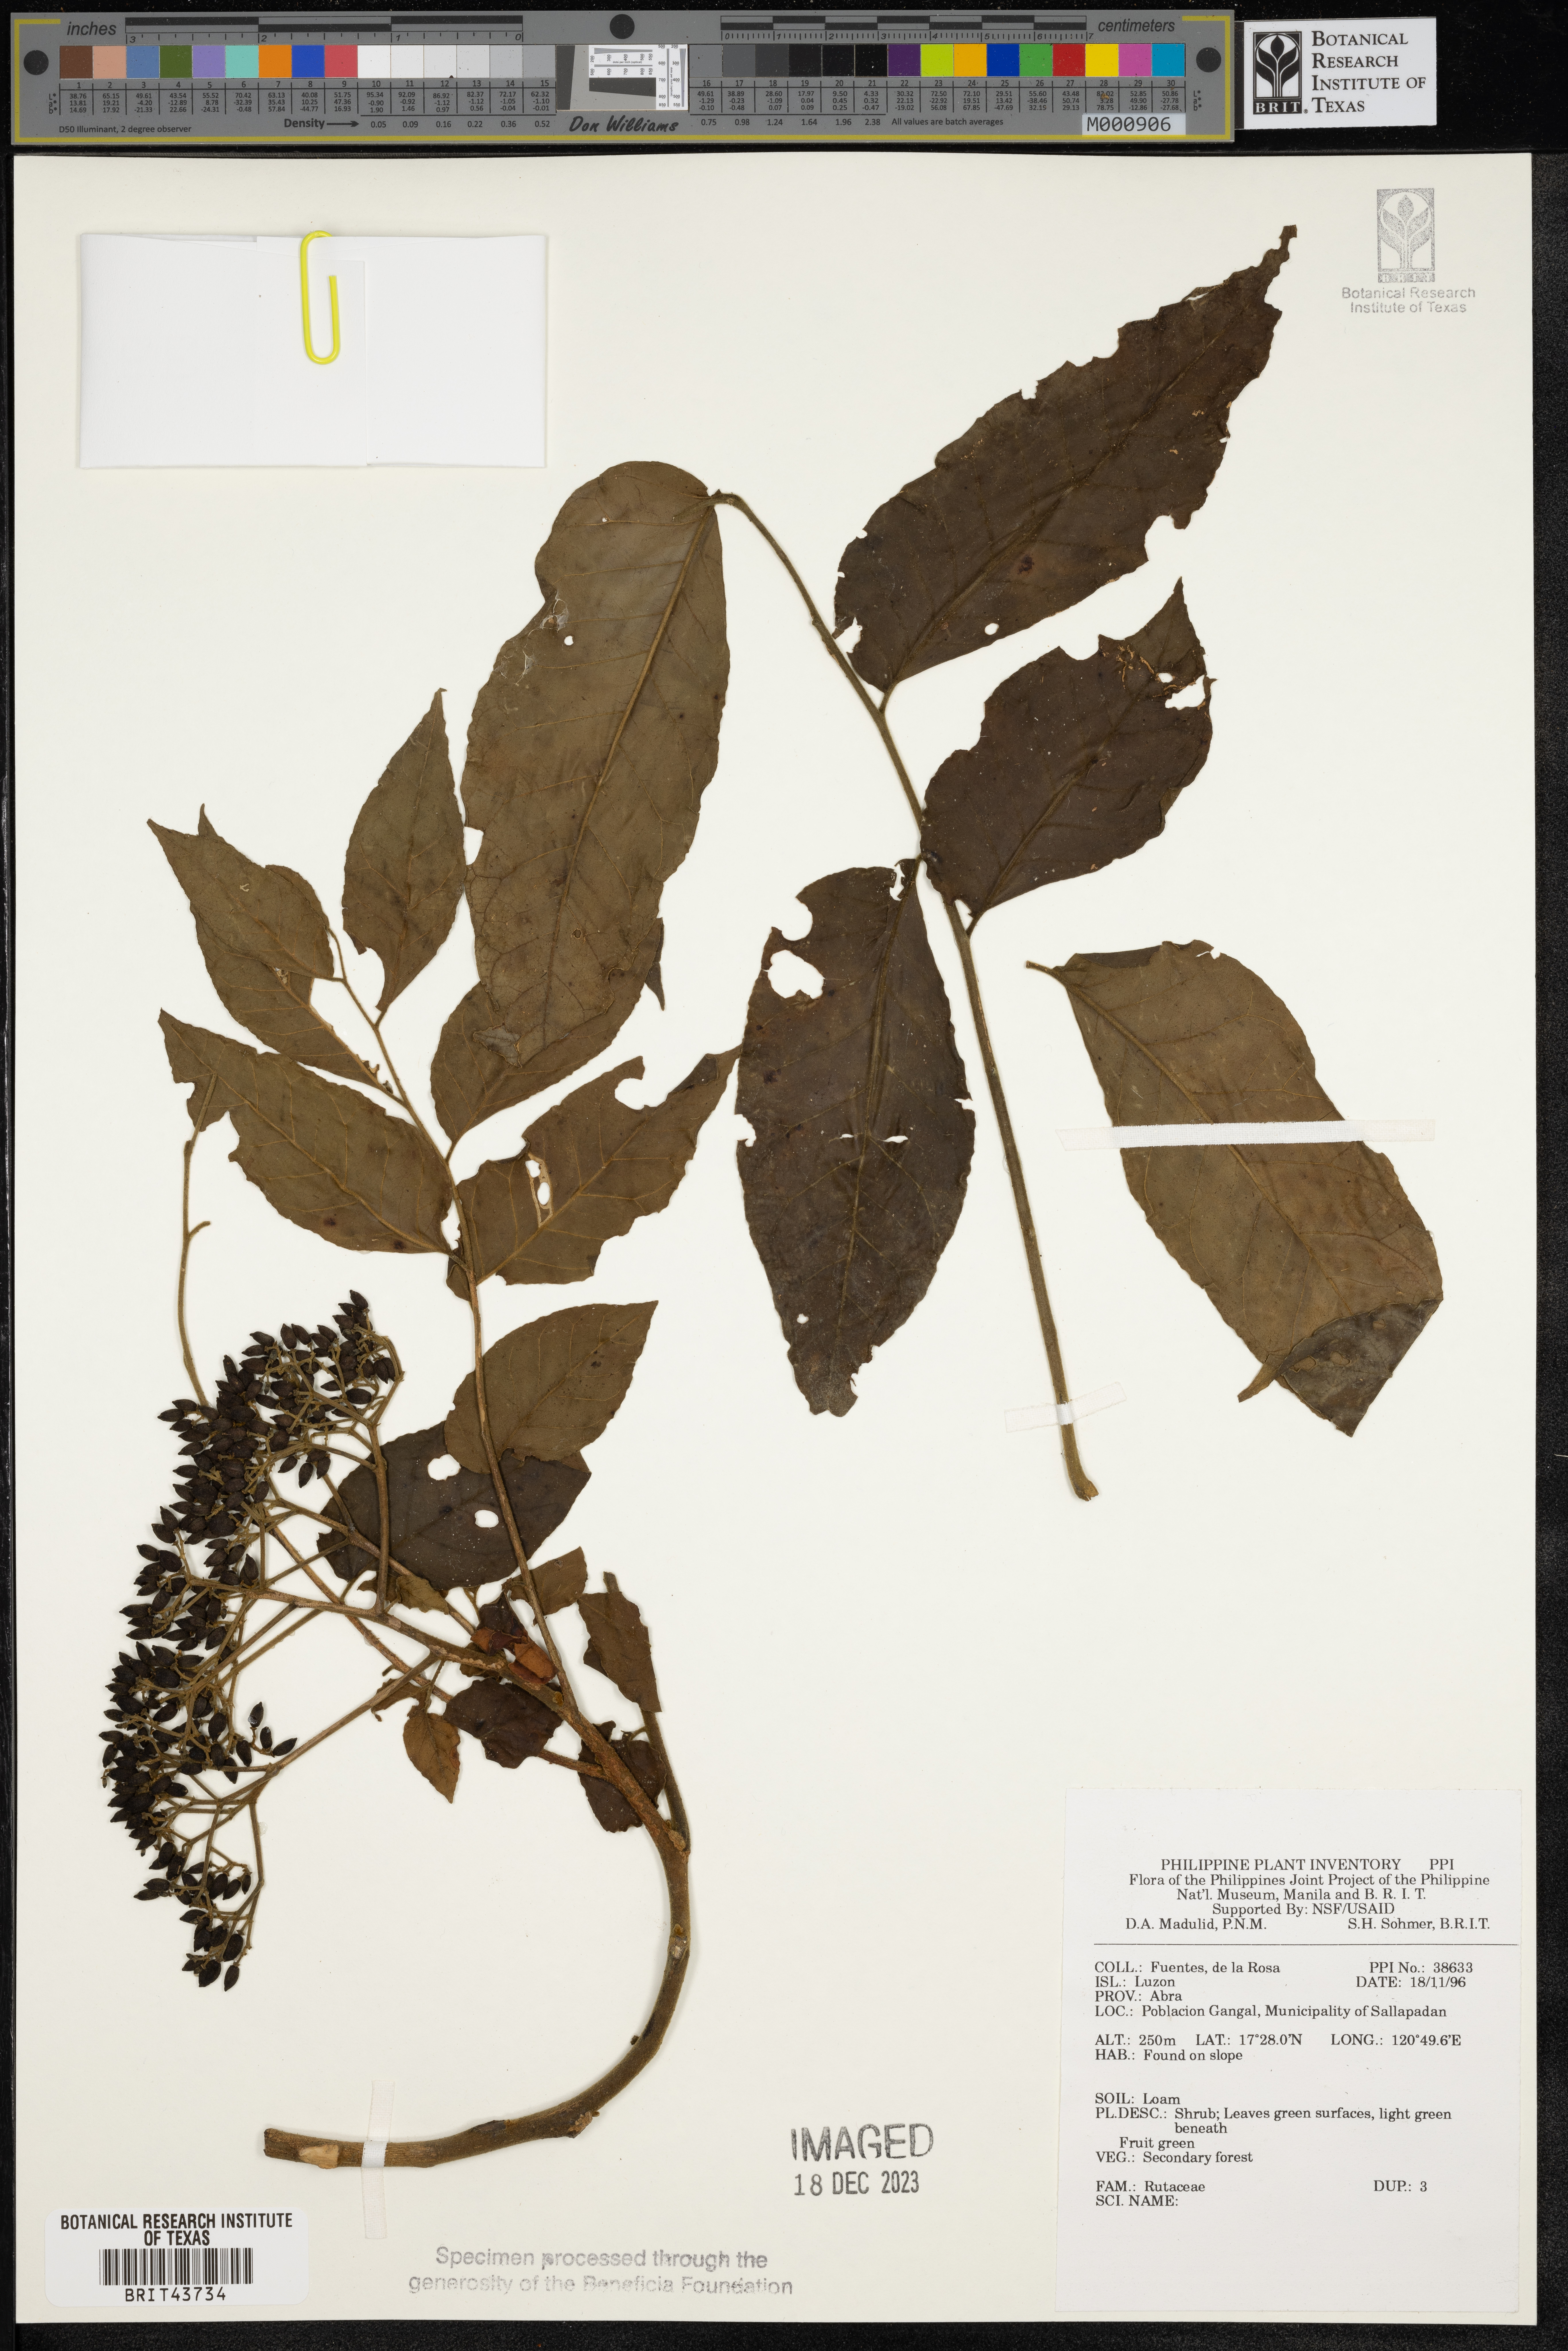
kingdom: Plantae
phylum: Tracheophyta
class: Magnoliopsida
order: Sapindales
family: Rutaceae
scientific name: Rutaceae
